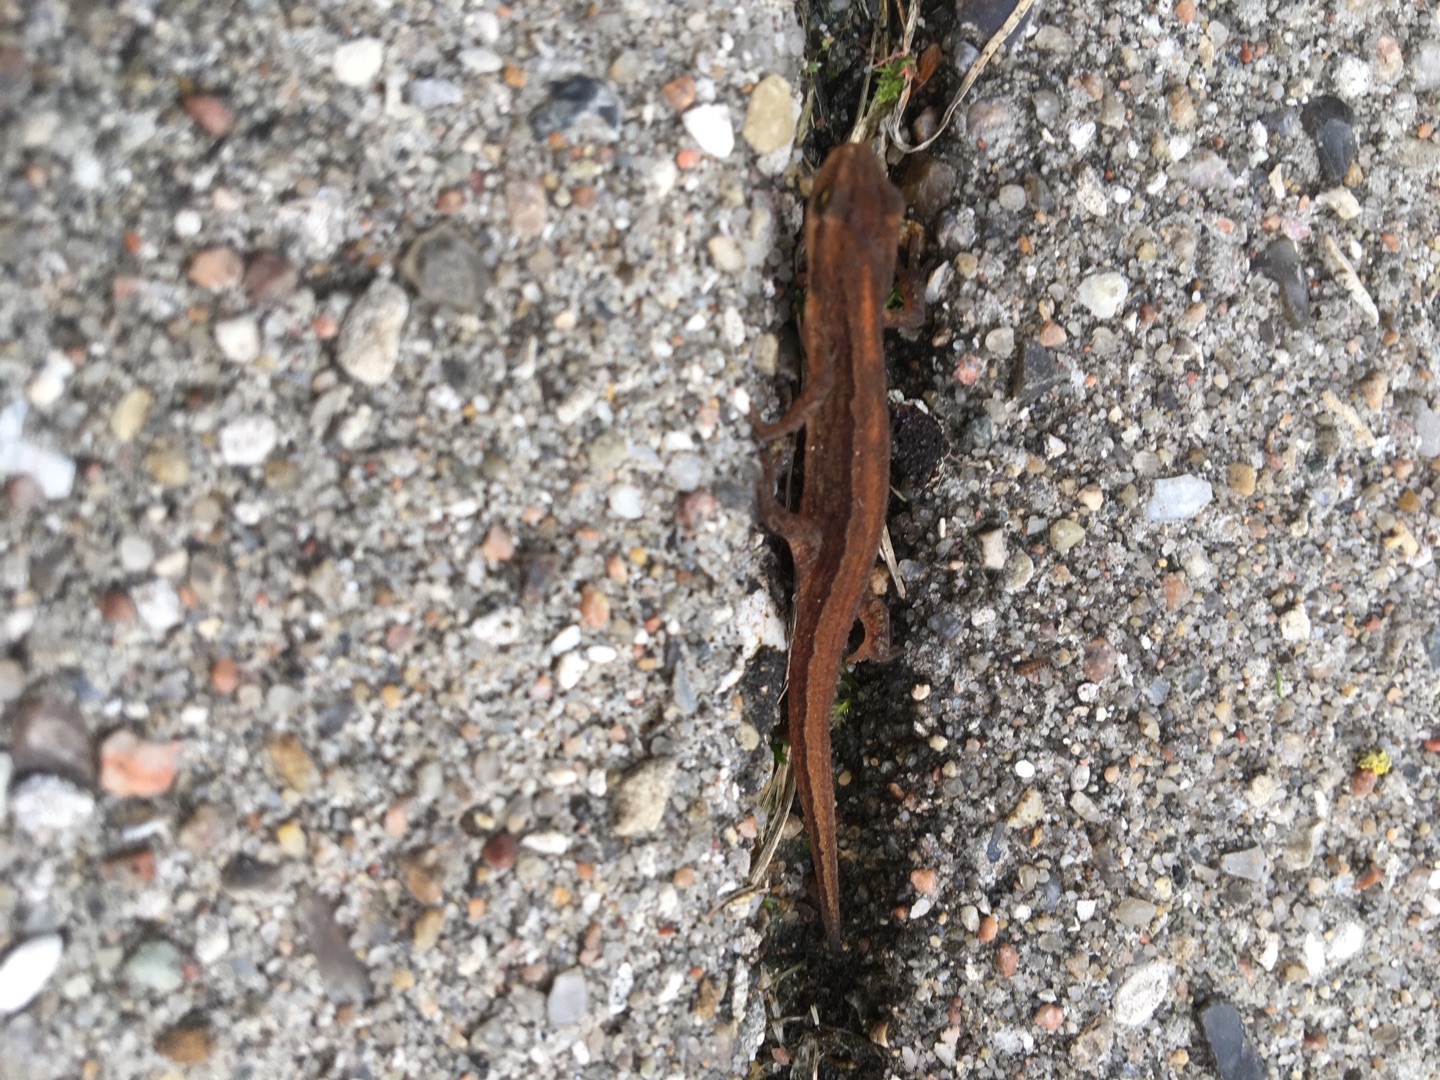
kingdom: Animalia
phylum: Chordata
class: Amphibia
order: Caudata
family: Salamandridae
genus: Lissotriton
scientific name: Lissotriton vulgaris
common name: Lille vandsalamander
